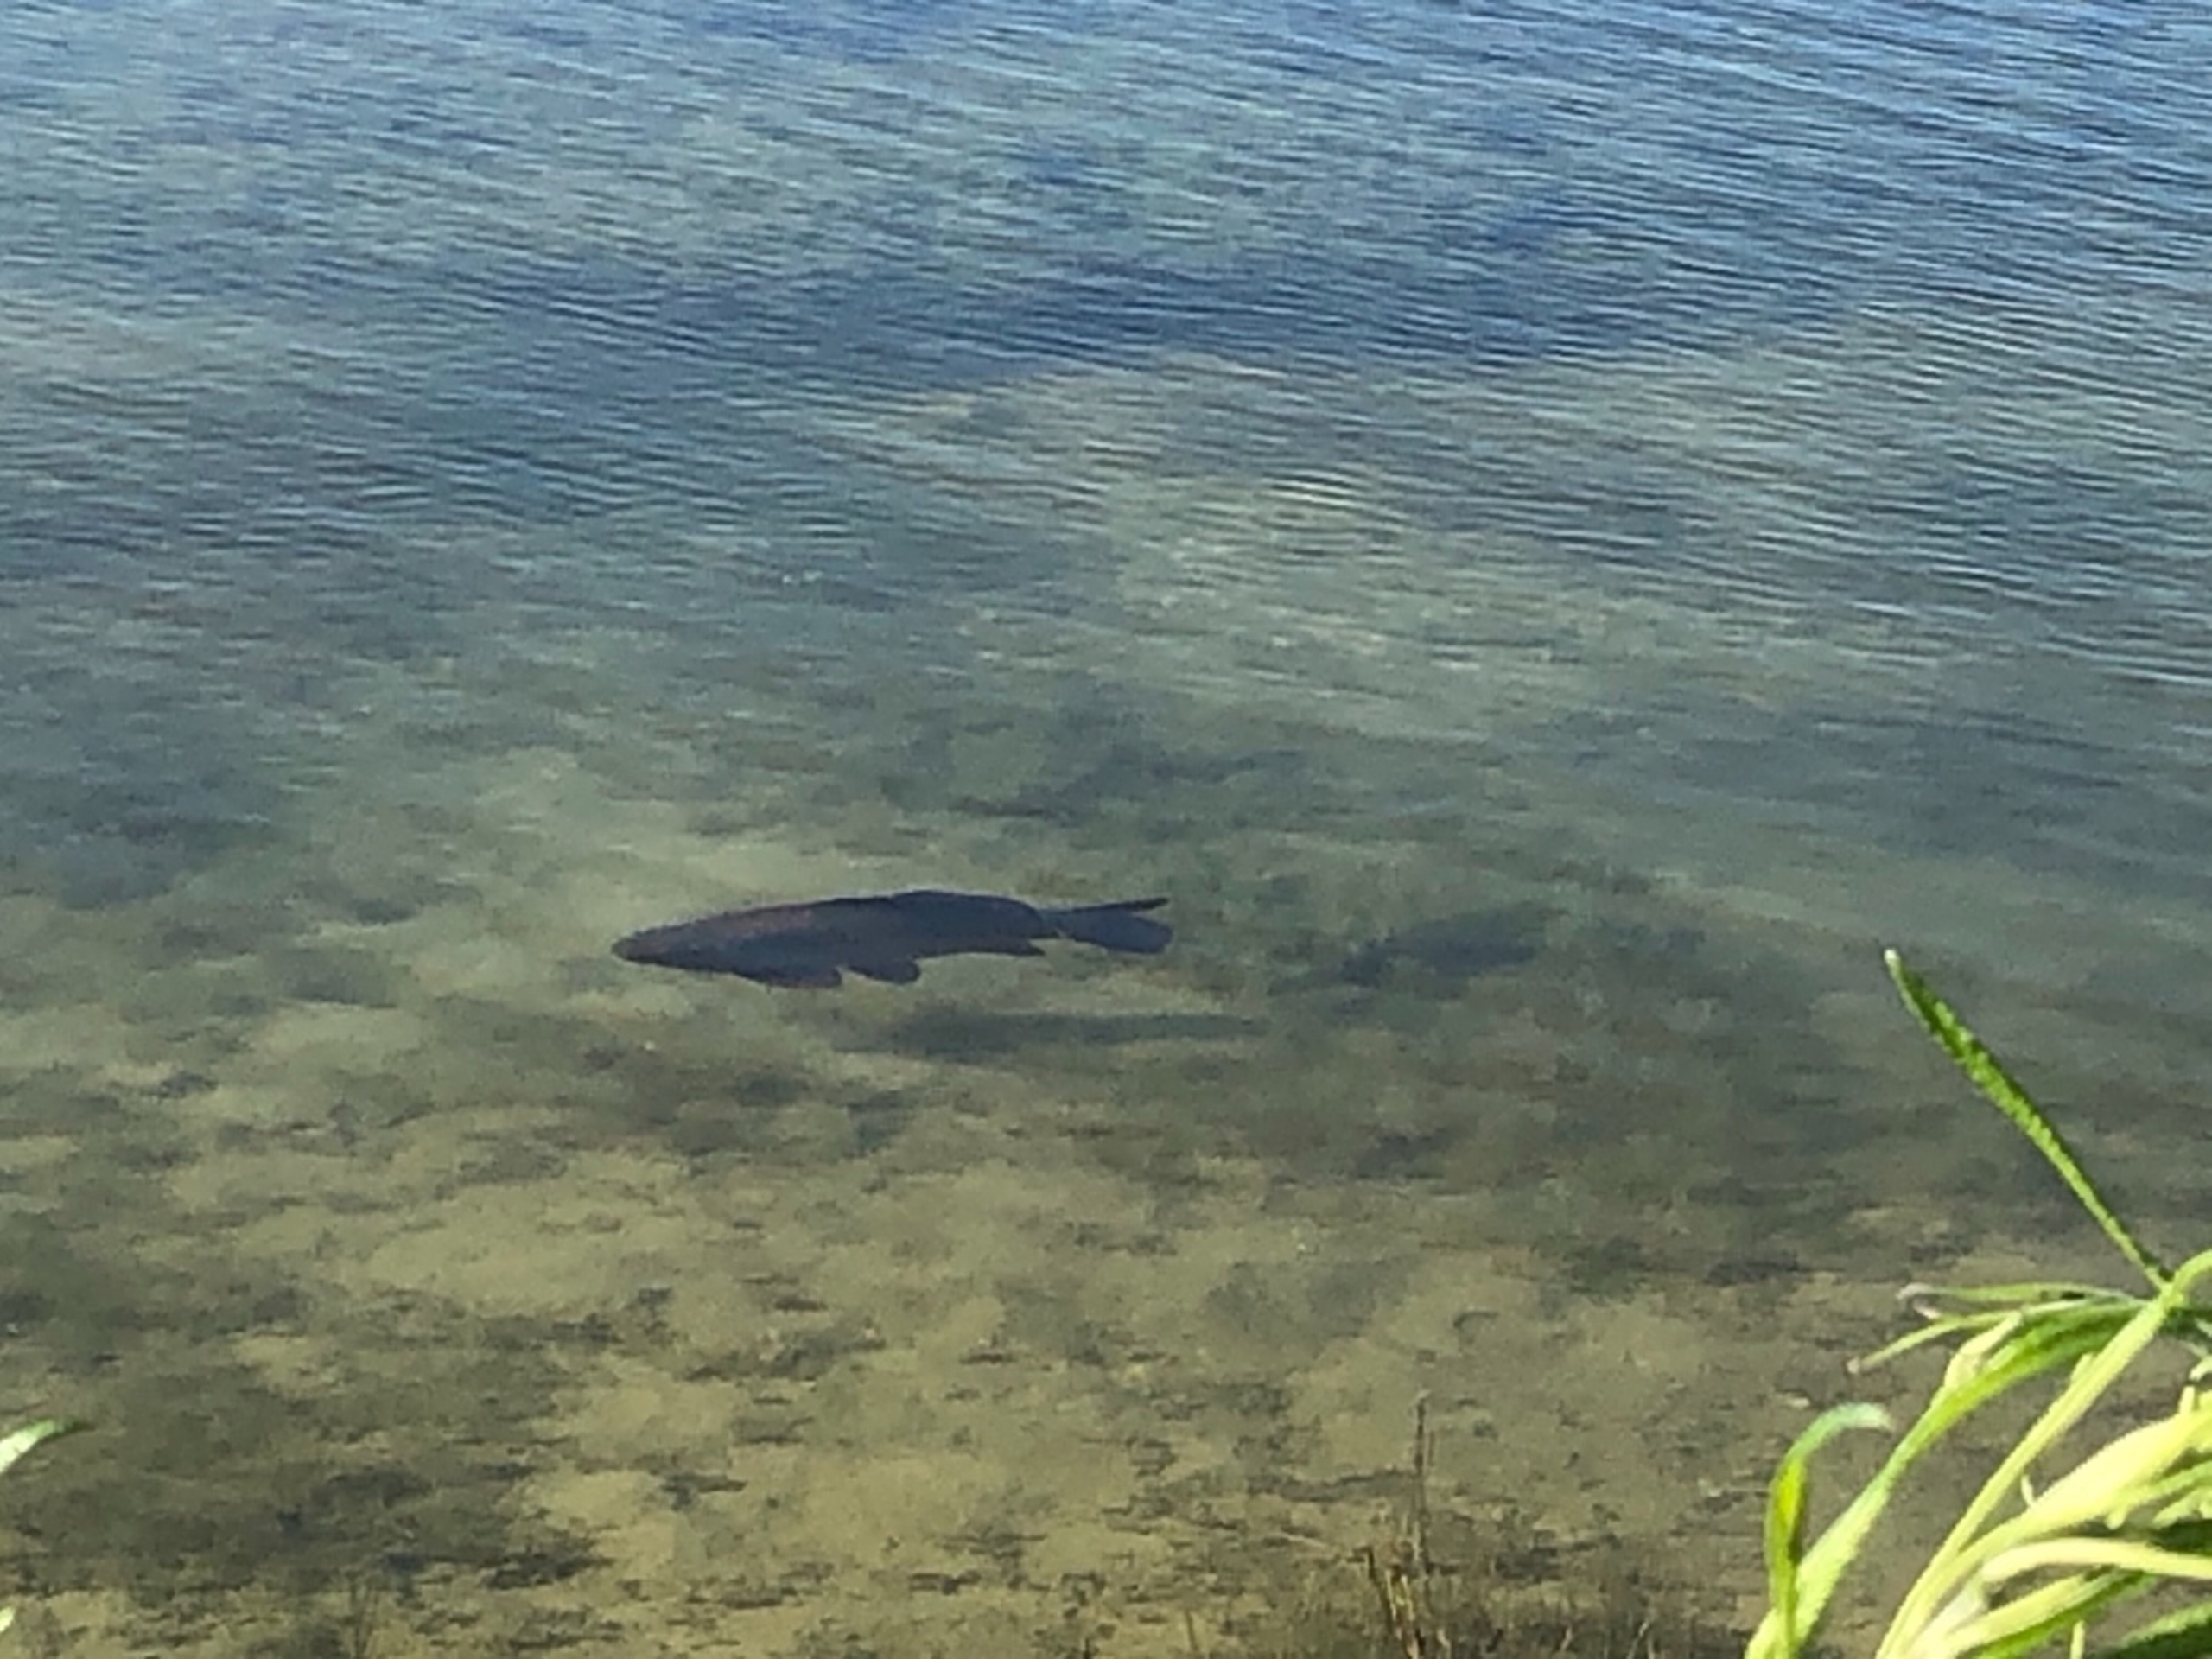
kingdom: Animalia
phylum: Chordata
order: Cypriniformes
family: Cyprinidae
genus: Cyprinus
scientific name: Cyprinus carpio
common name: Karpe
